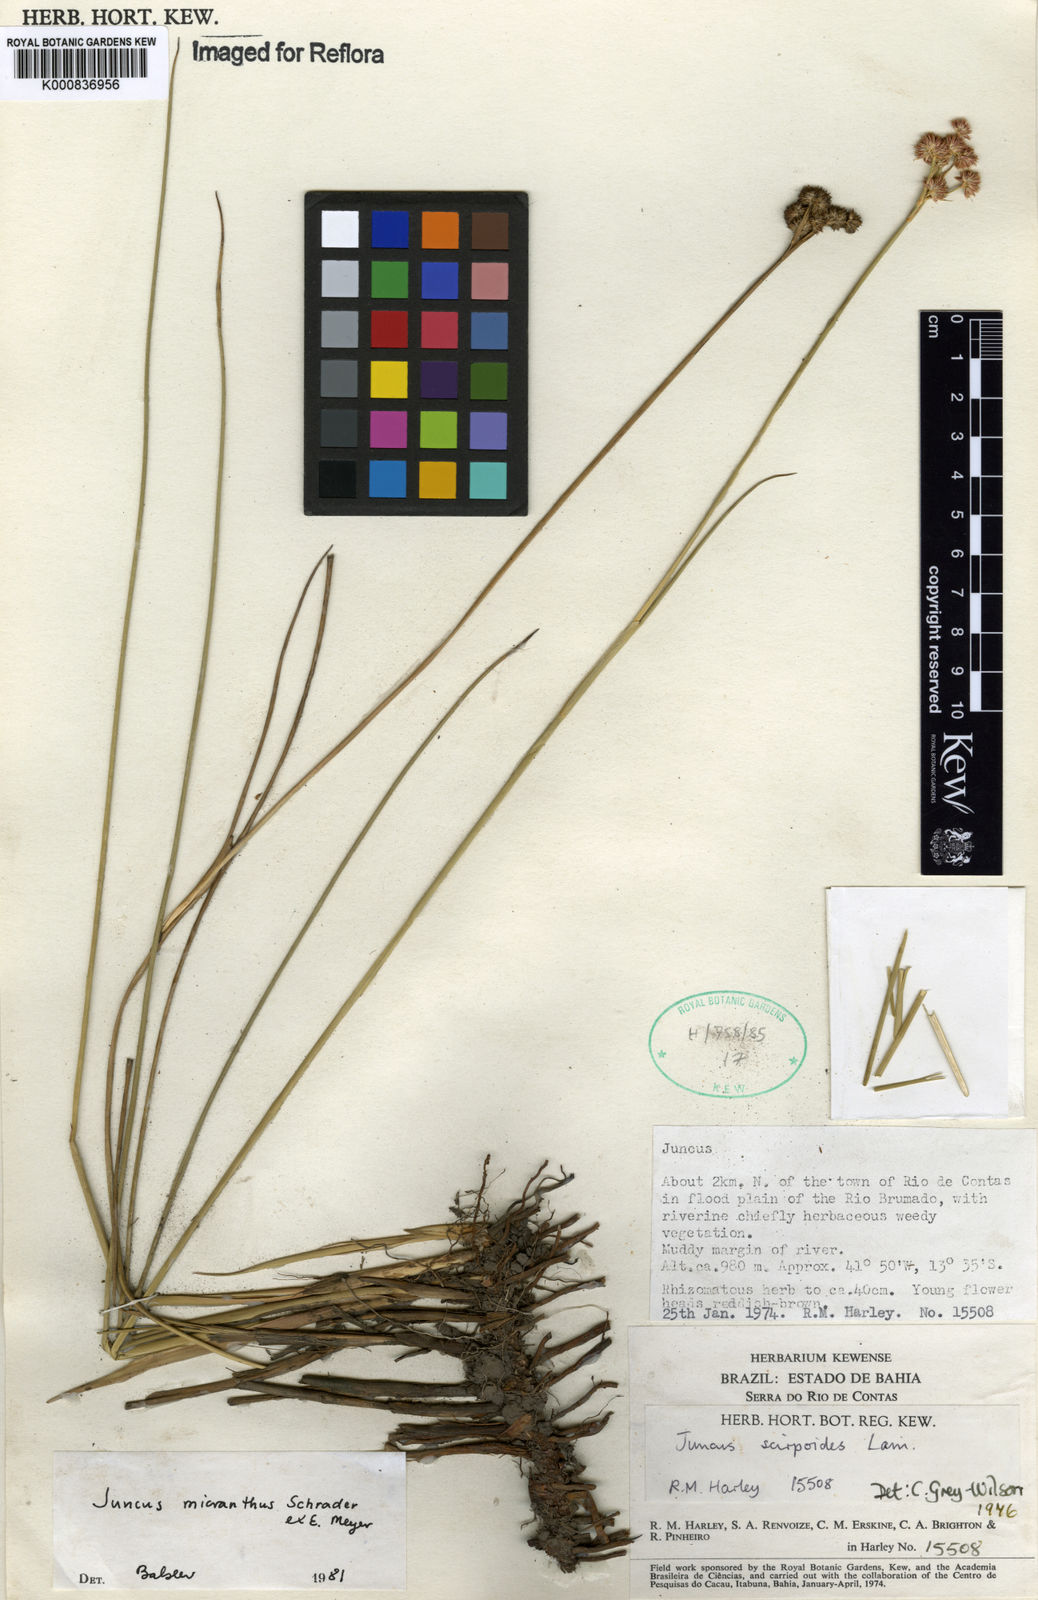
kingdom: Plantae
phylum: Tracheophyta
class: Liliopsida
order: Poales
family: Juncaceae
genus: Juncus
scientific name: Juncus
